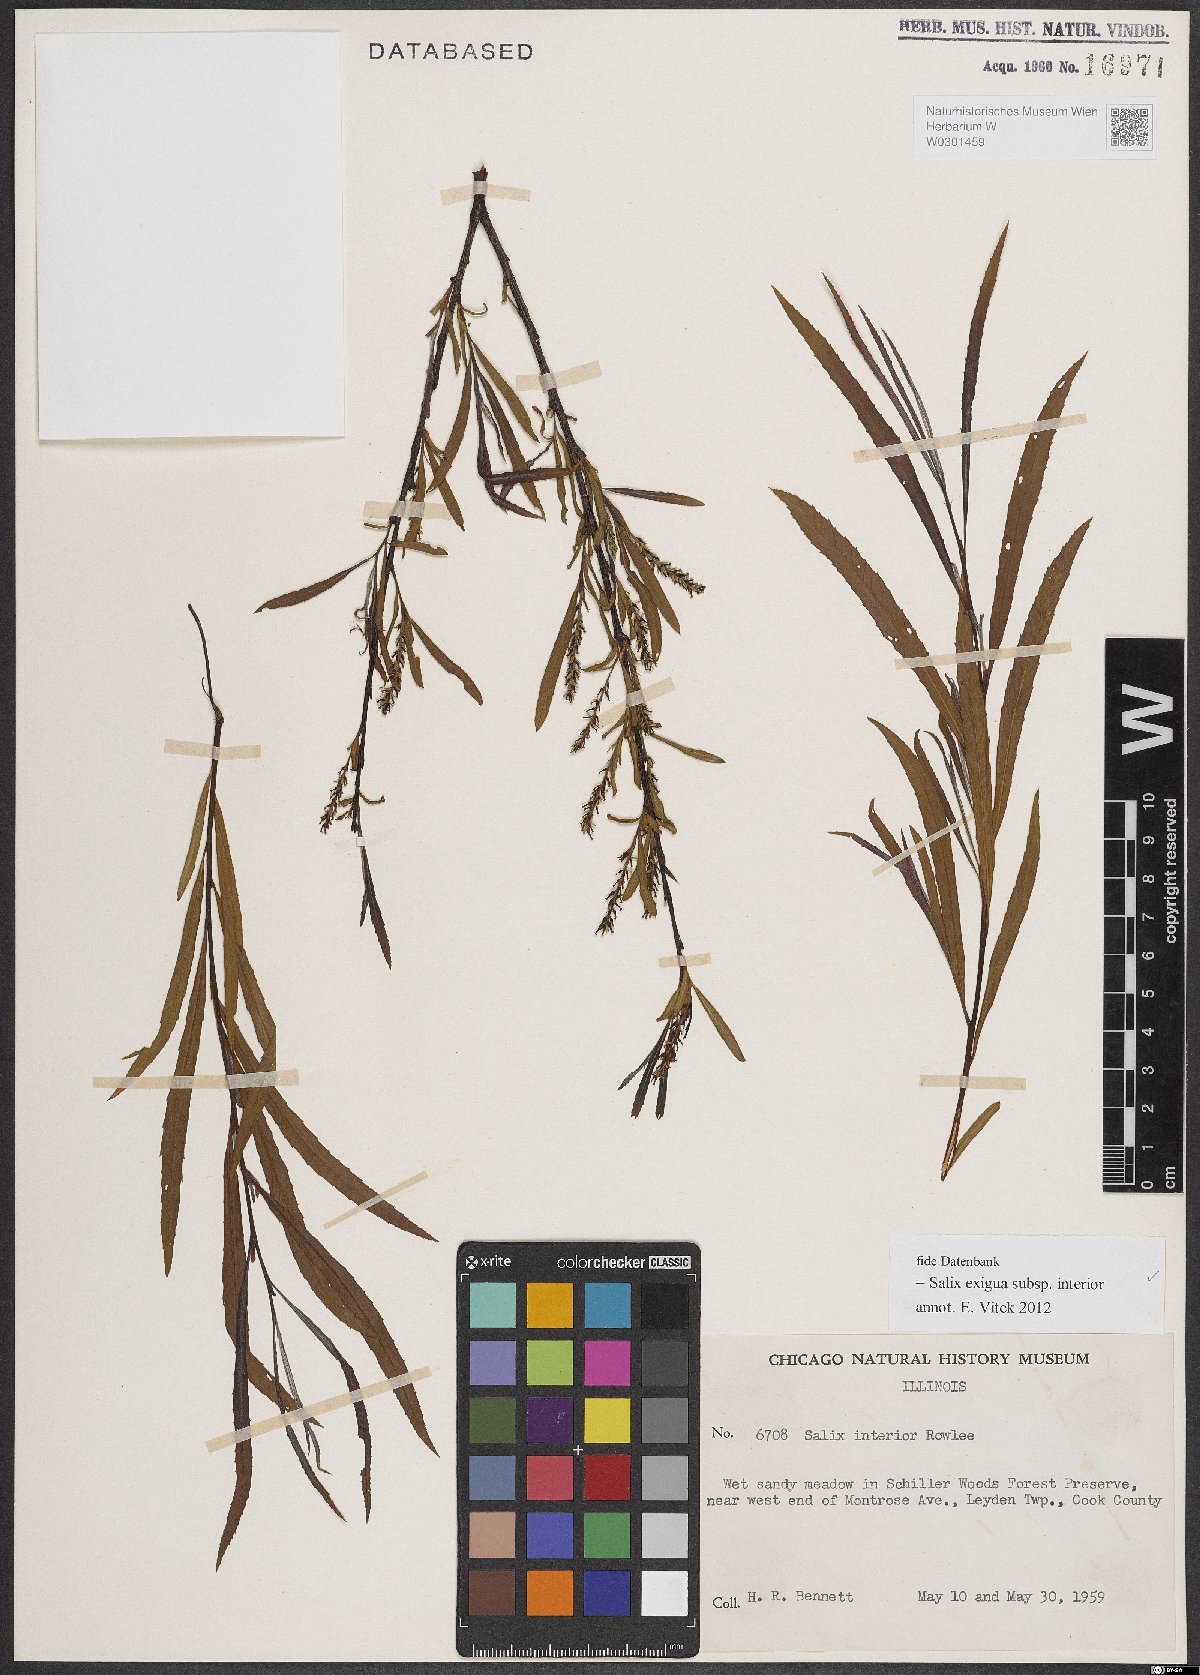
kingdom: Plantae
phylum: Tracheophyta
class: Magnoliopsida
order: Malpighiales
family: Salicaceae
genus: Salix
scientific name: Salix interior
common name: Sandbar willow
